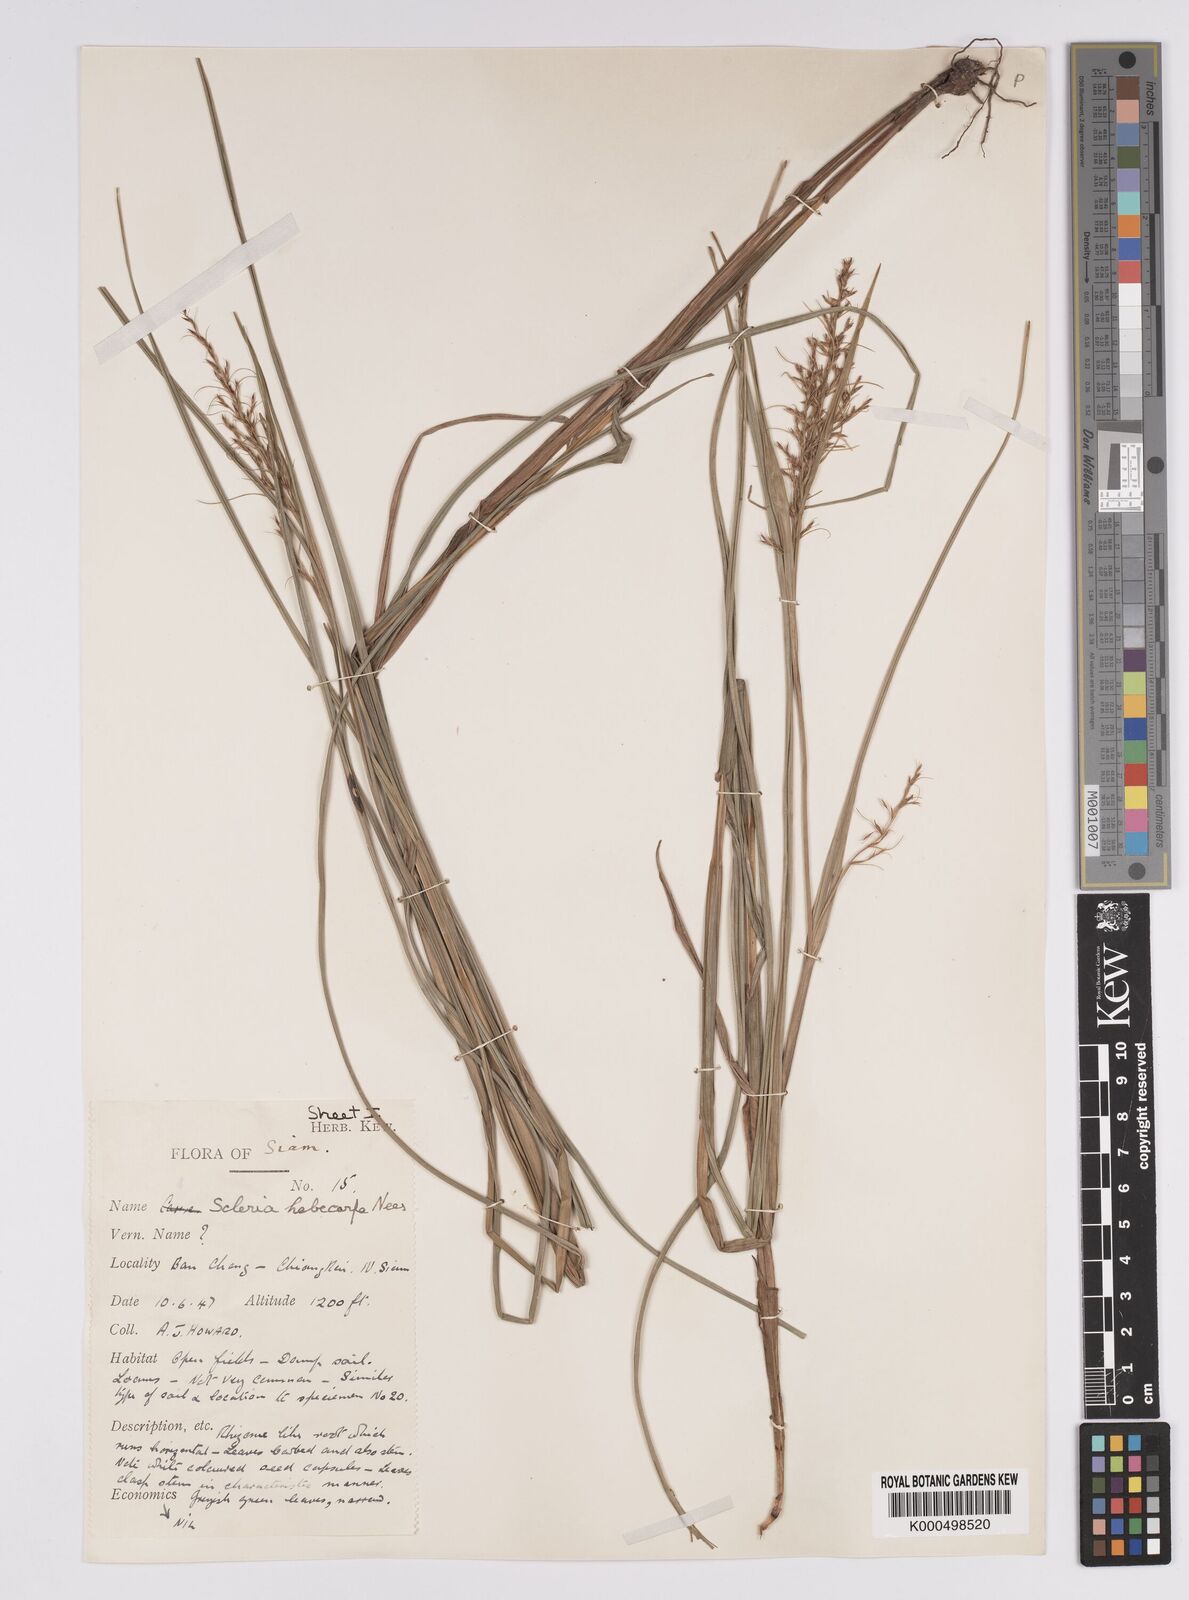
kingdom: Plantae
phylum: Tracheophyta
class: Liliopsida
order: Poales
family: Cyperaceae
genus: Scleria
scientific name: Scleria levis
